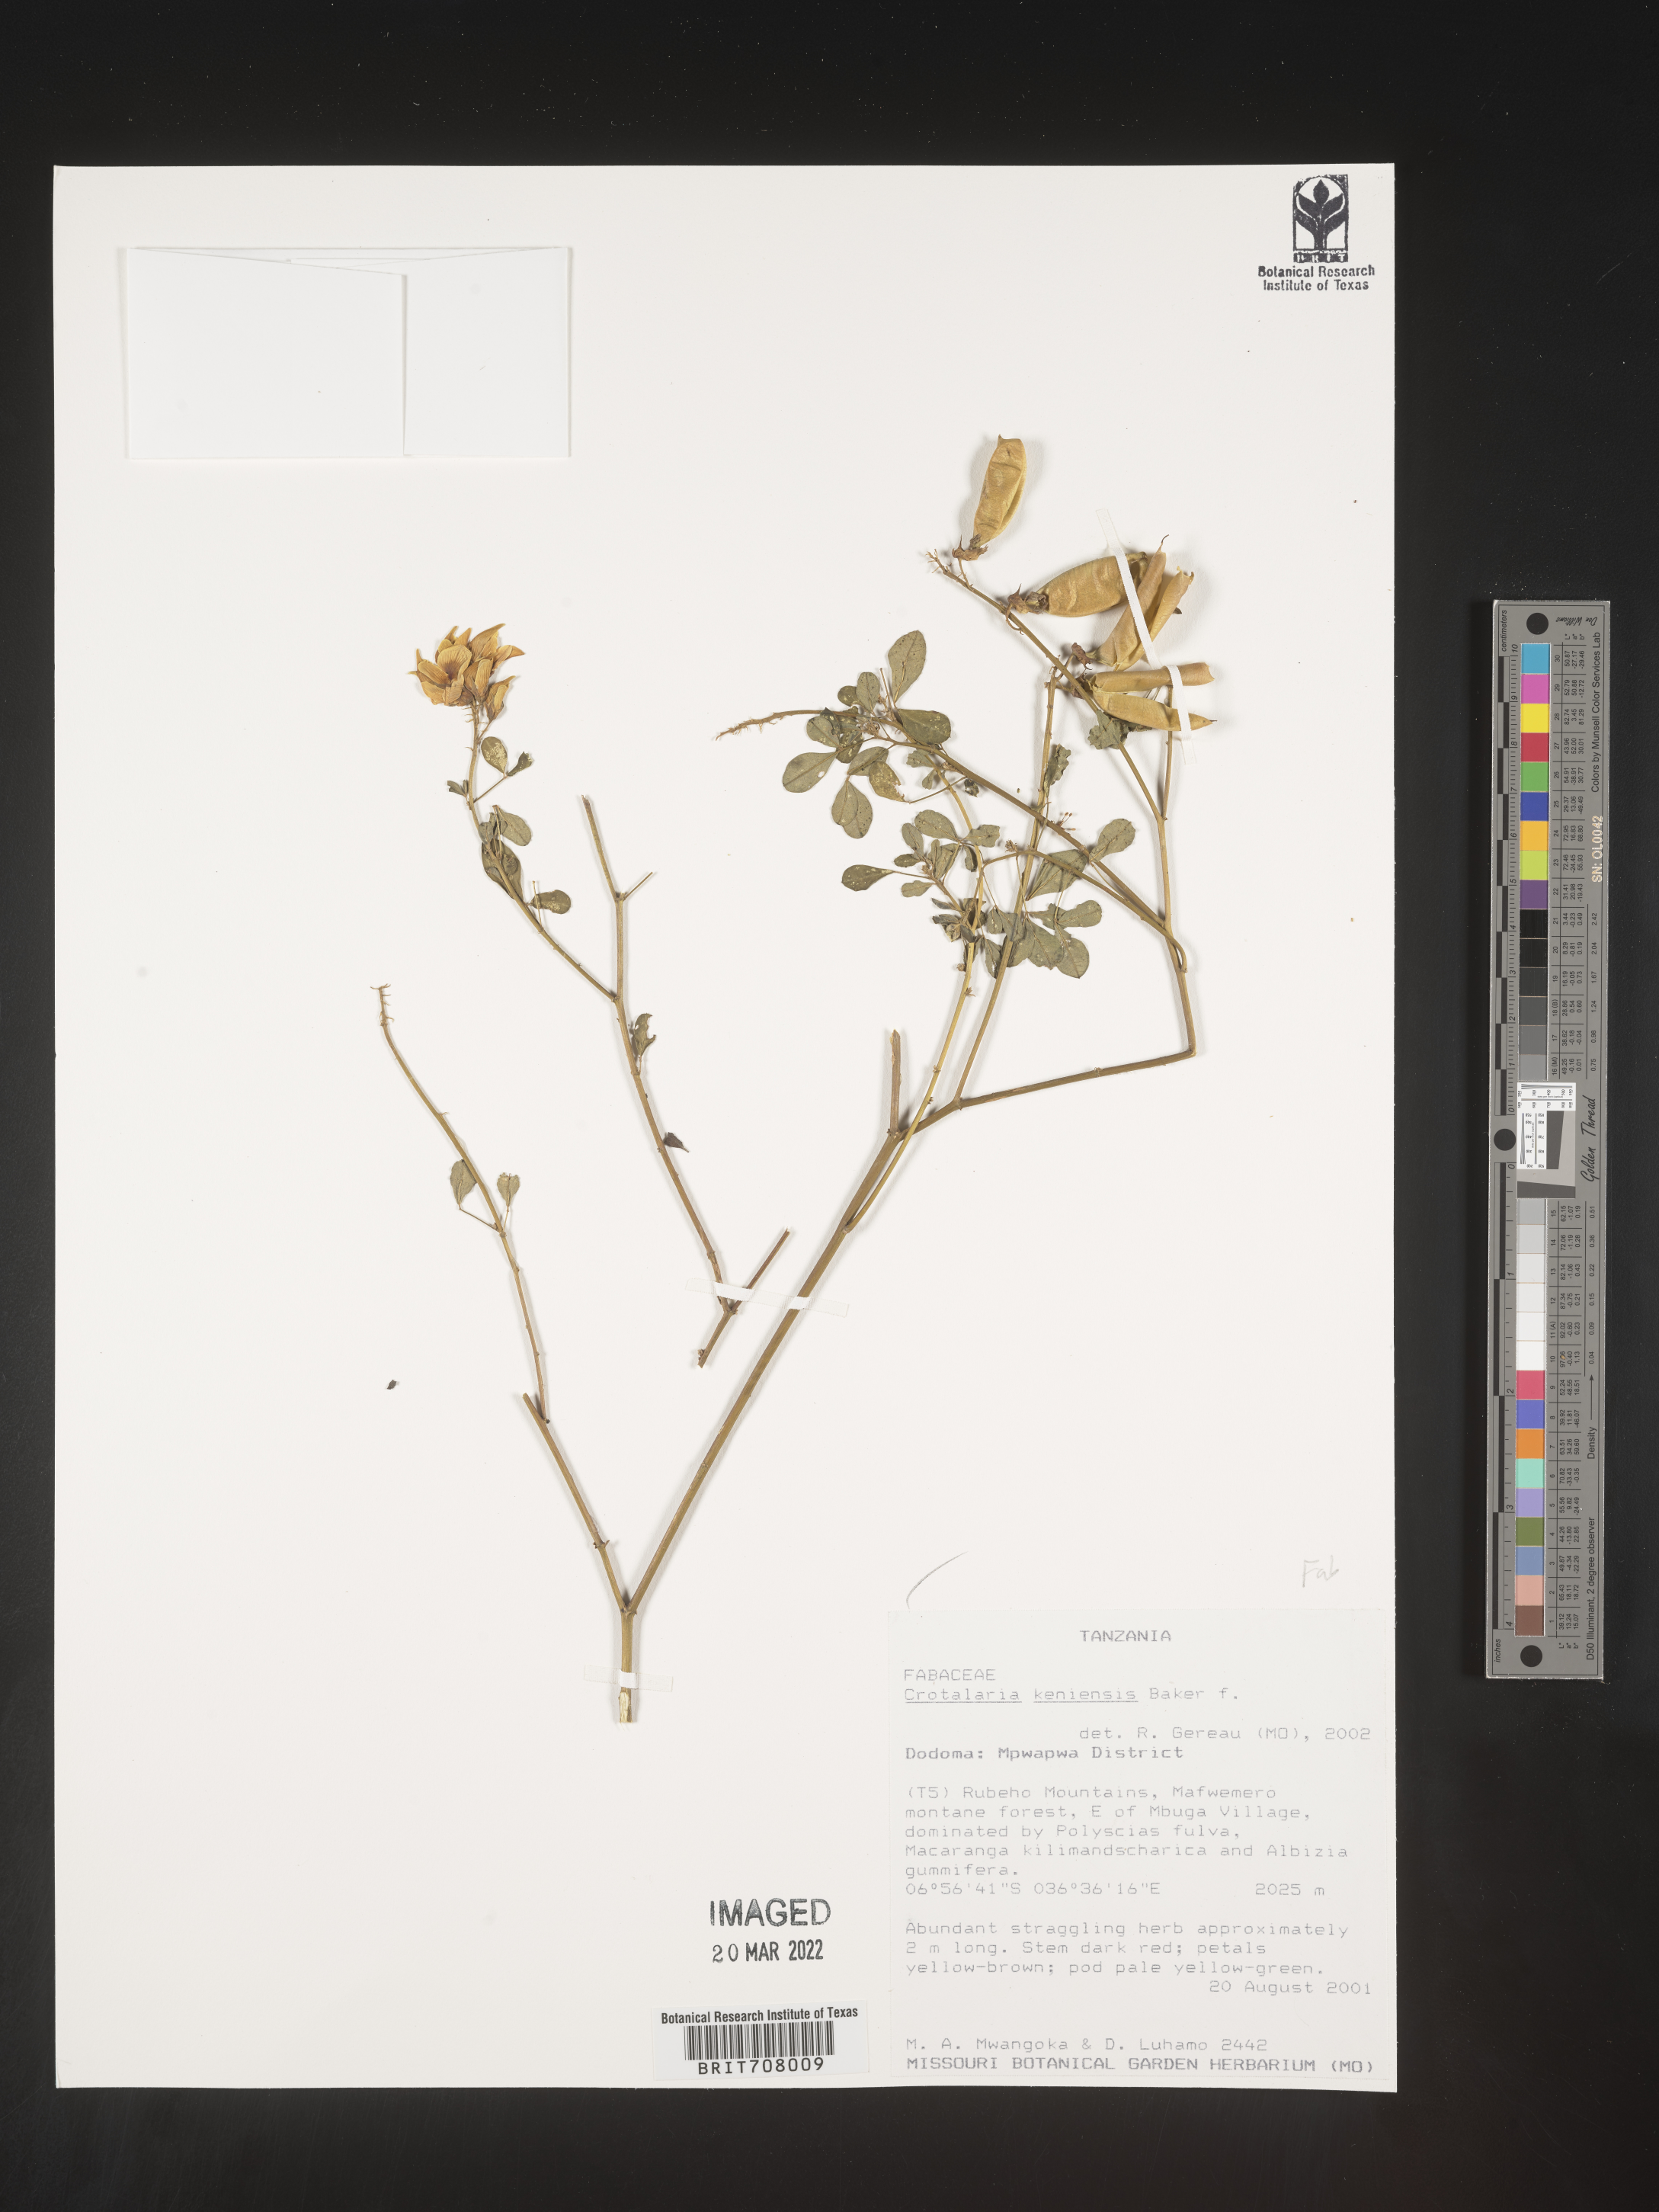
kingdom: Plantae
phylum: Tracheophyta
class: Magnoliopsida
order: Fabales
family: Fabaceae
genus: Crotalaria
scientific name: Crotalaria
